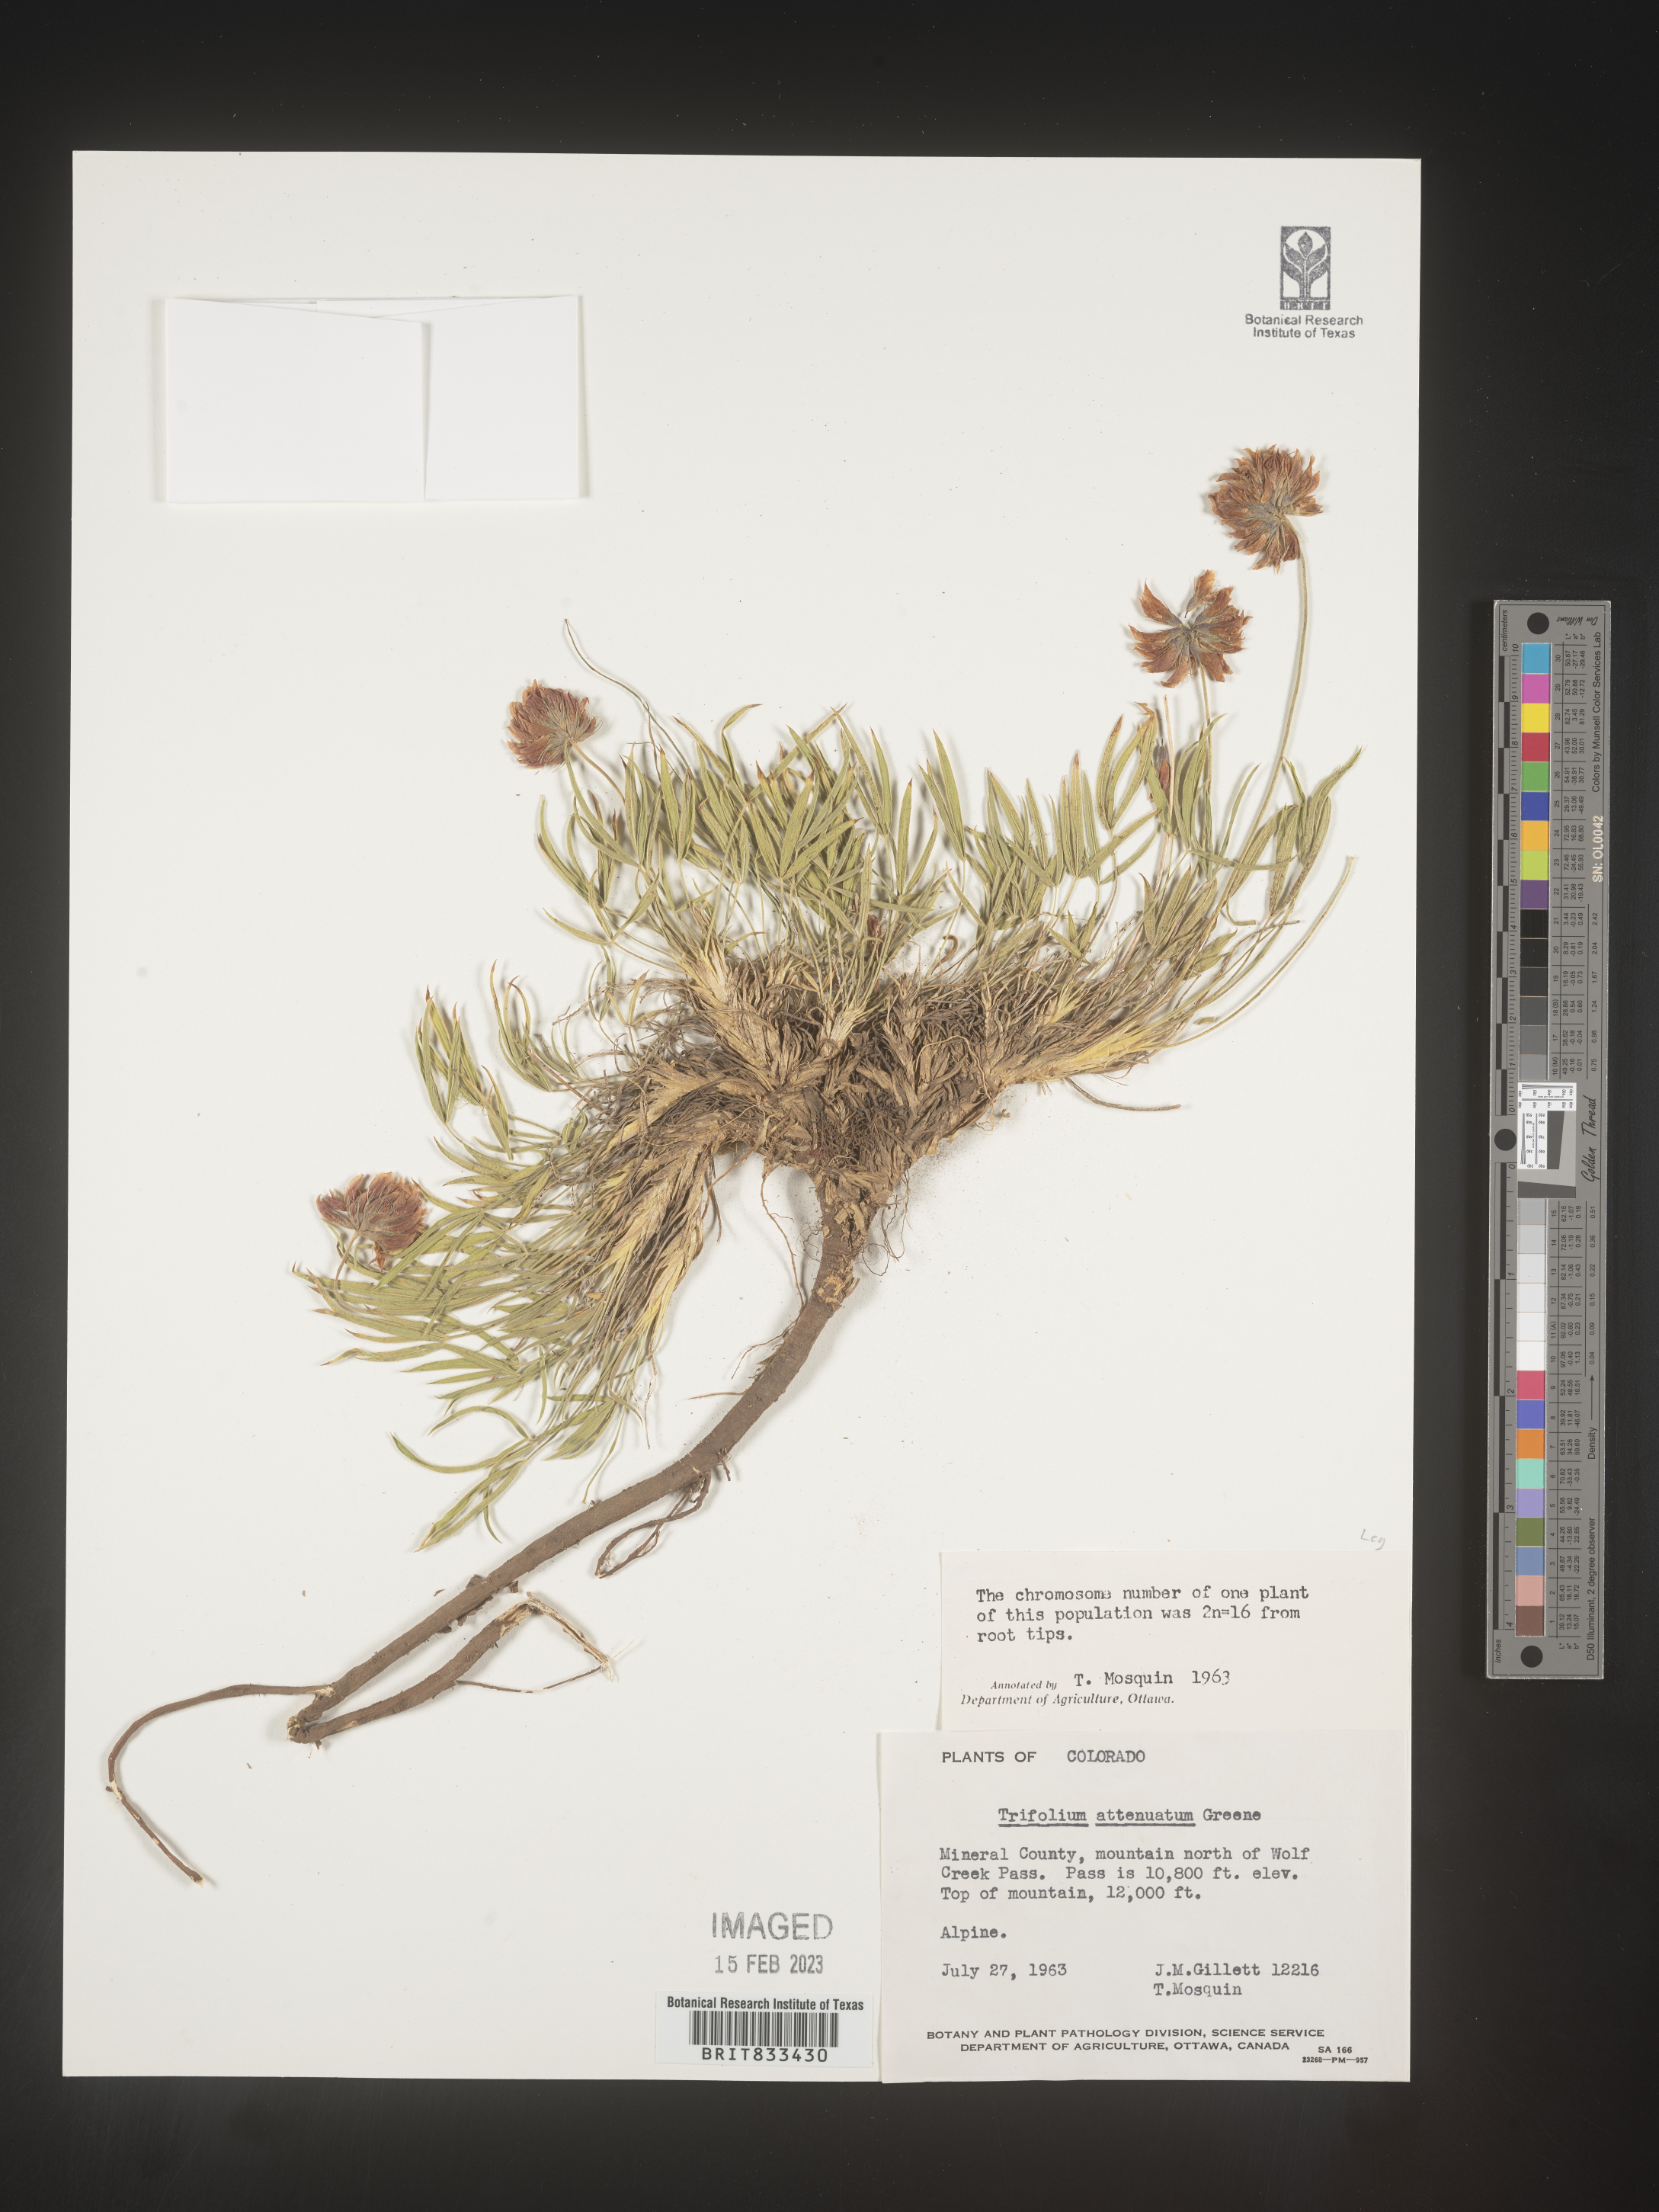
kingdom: Plantae
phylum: Tracheophyta
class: Magnoliopsida
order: Fabales
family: Fabaceae
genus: Trifolium
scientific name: Trifolium
